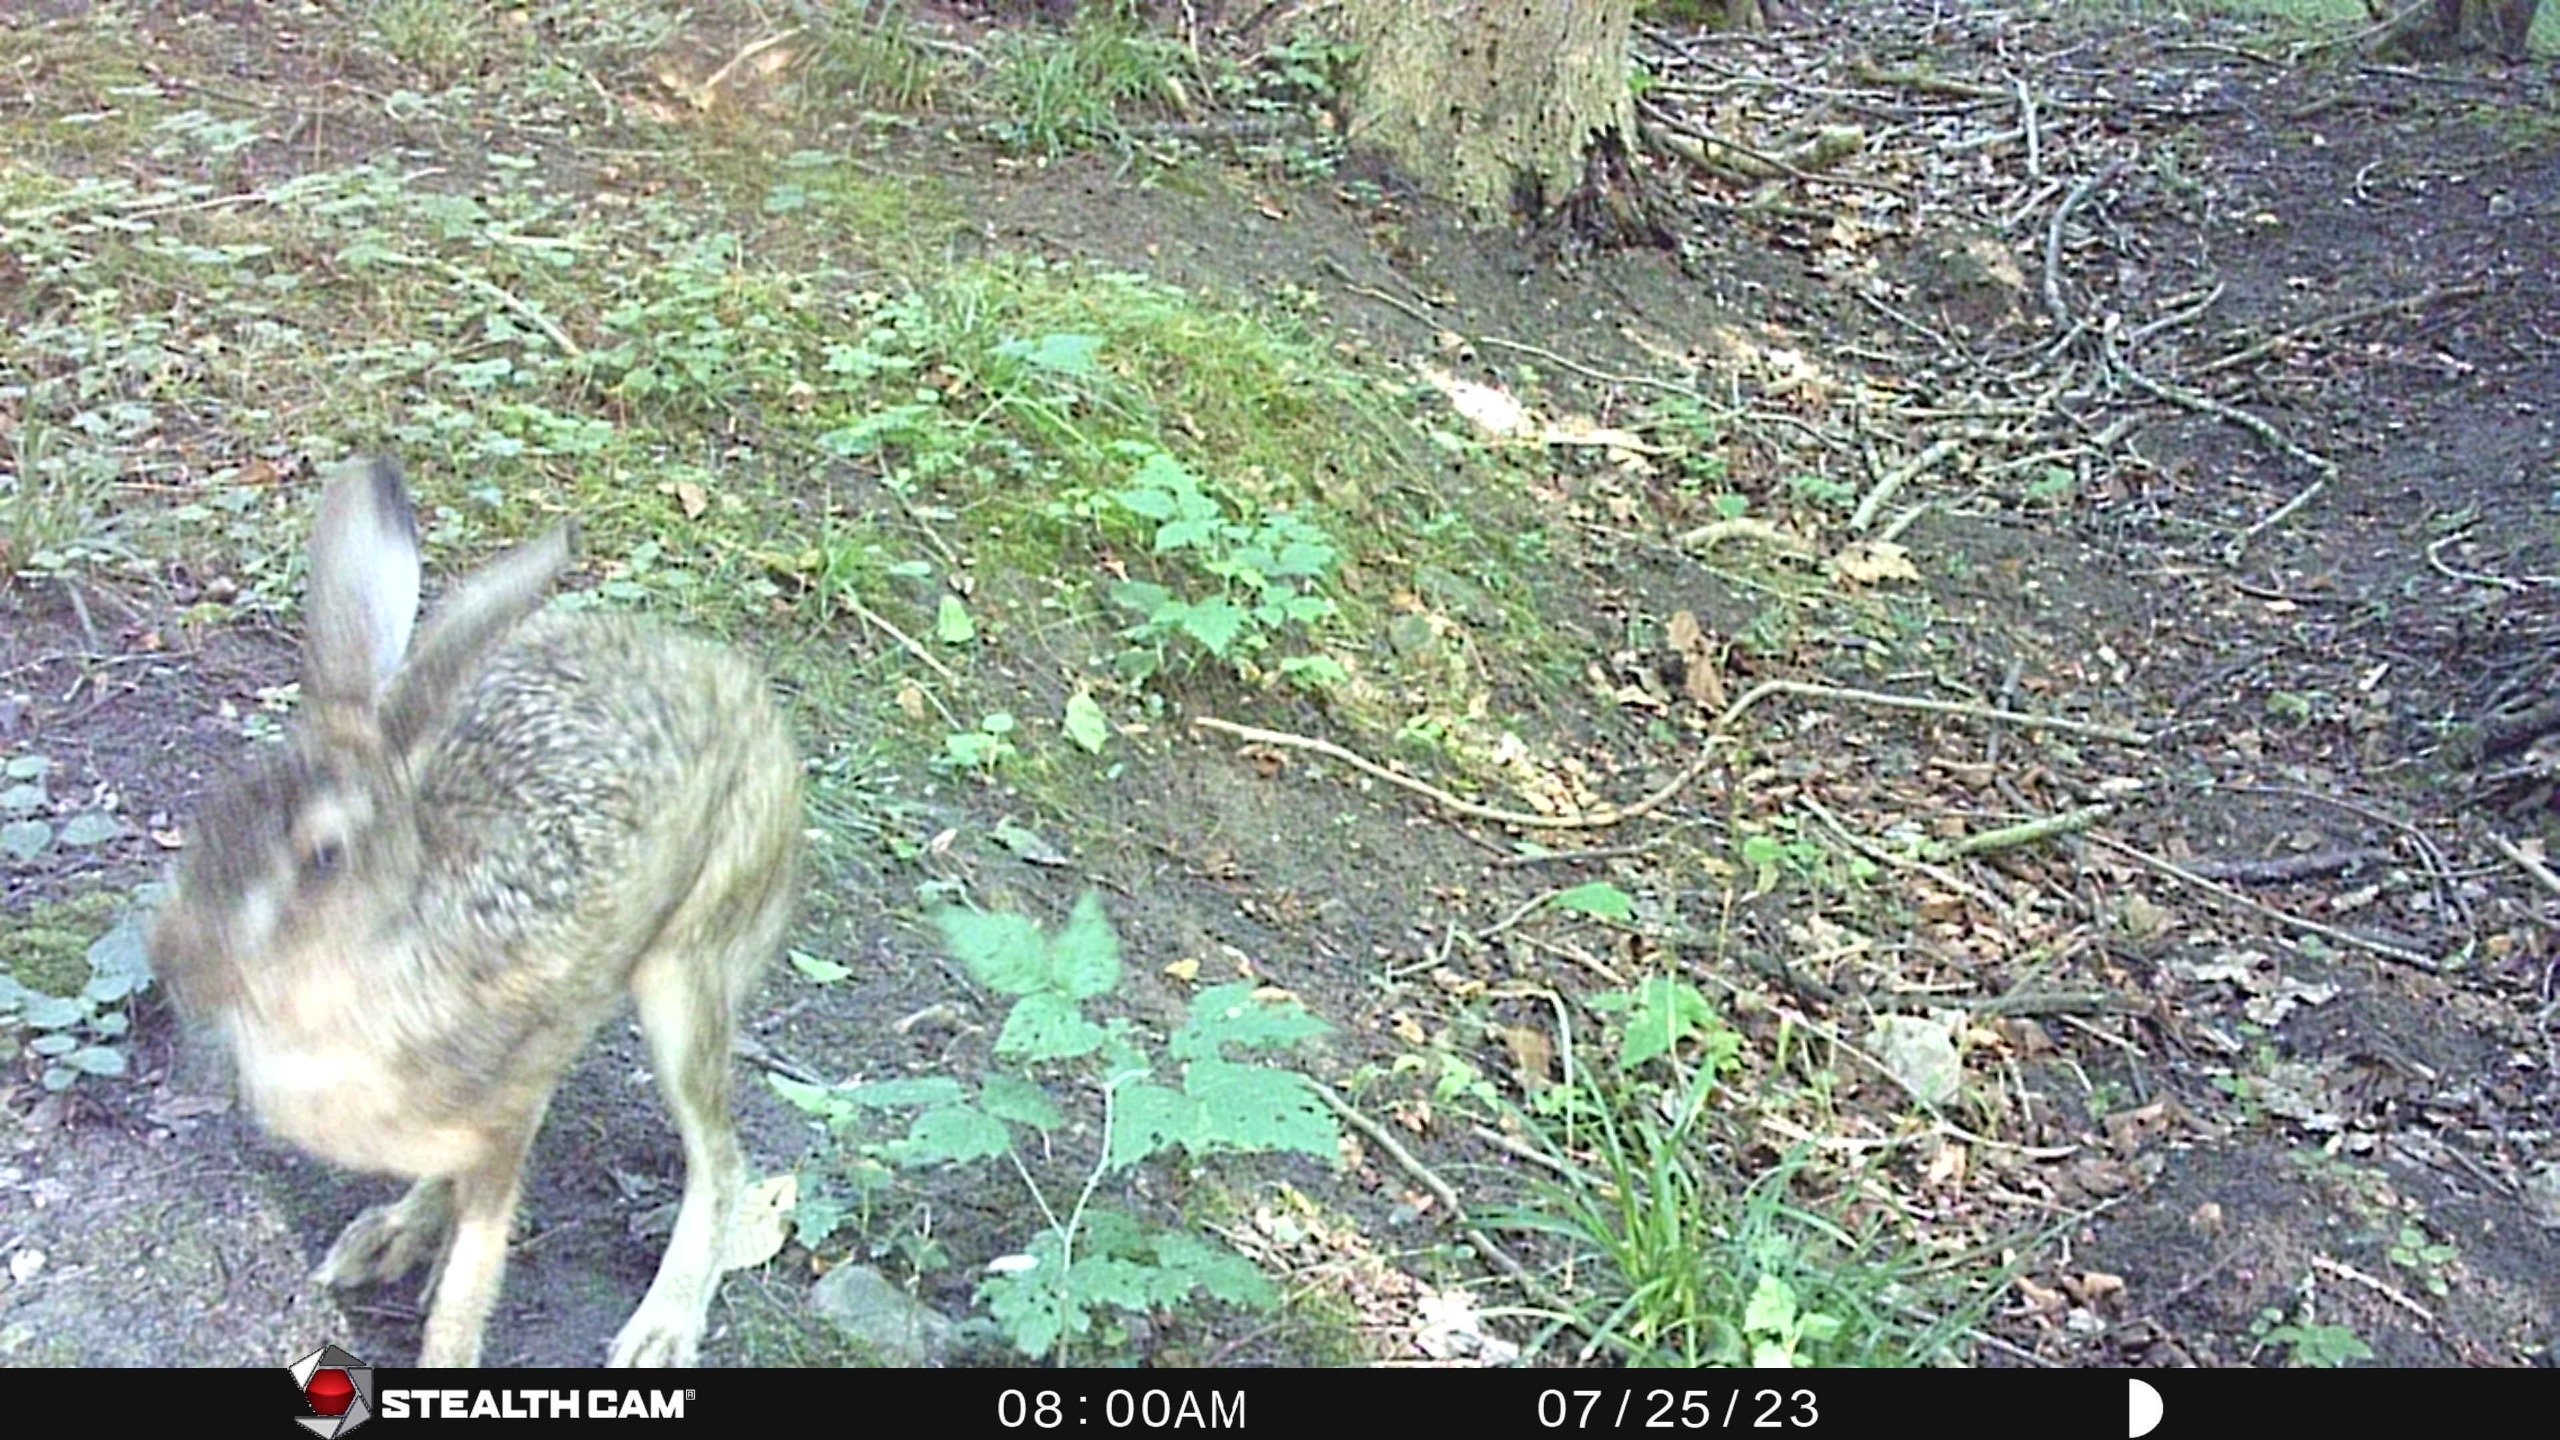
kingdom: Animalia
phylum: Chordata
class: Mammalia
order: Lagomorpha
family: Leporidae
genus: Lepus
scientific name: Lepus europaeus
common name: Hare
